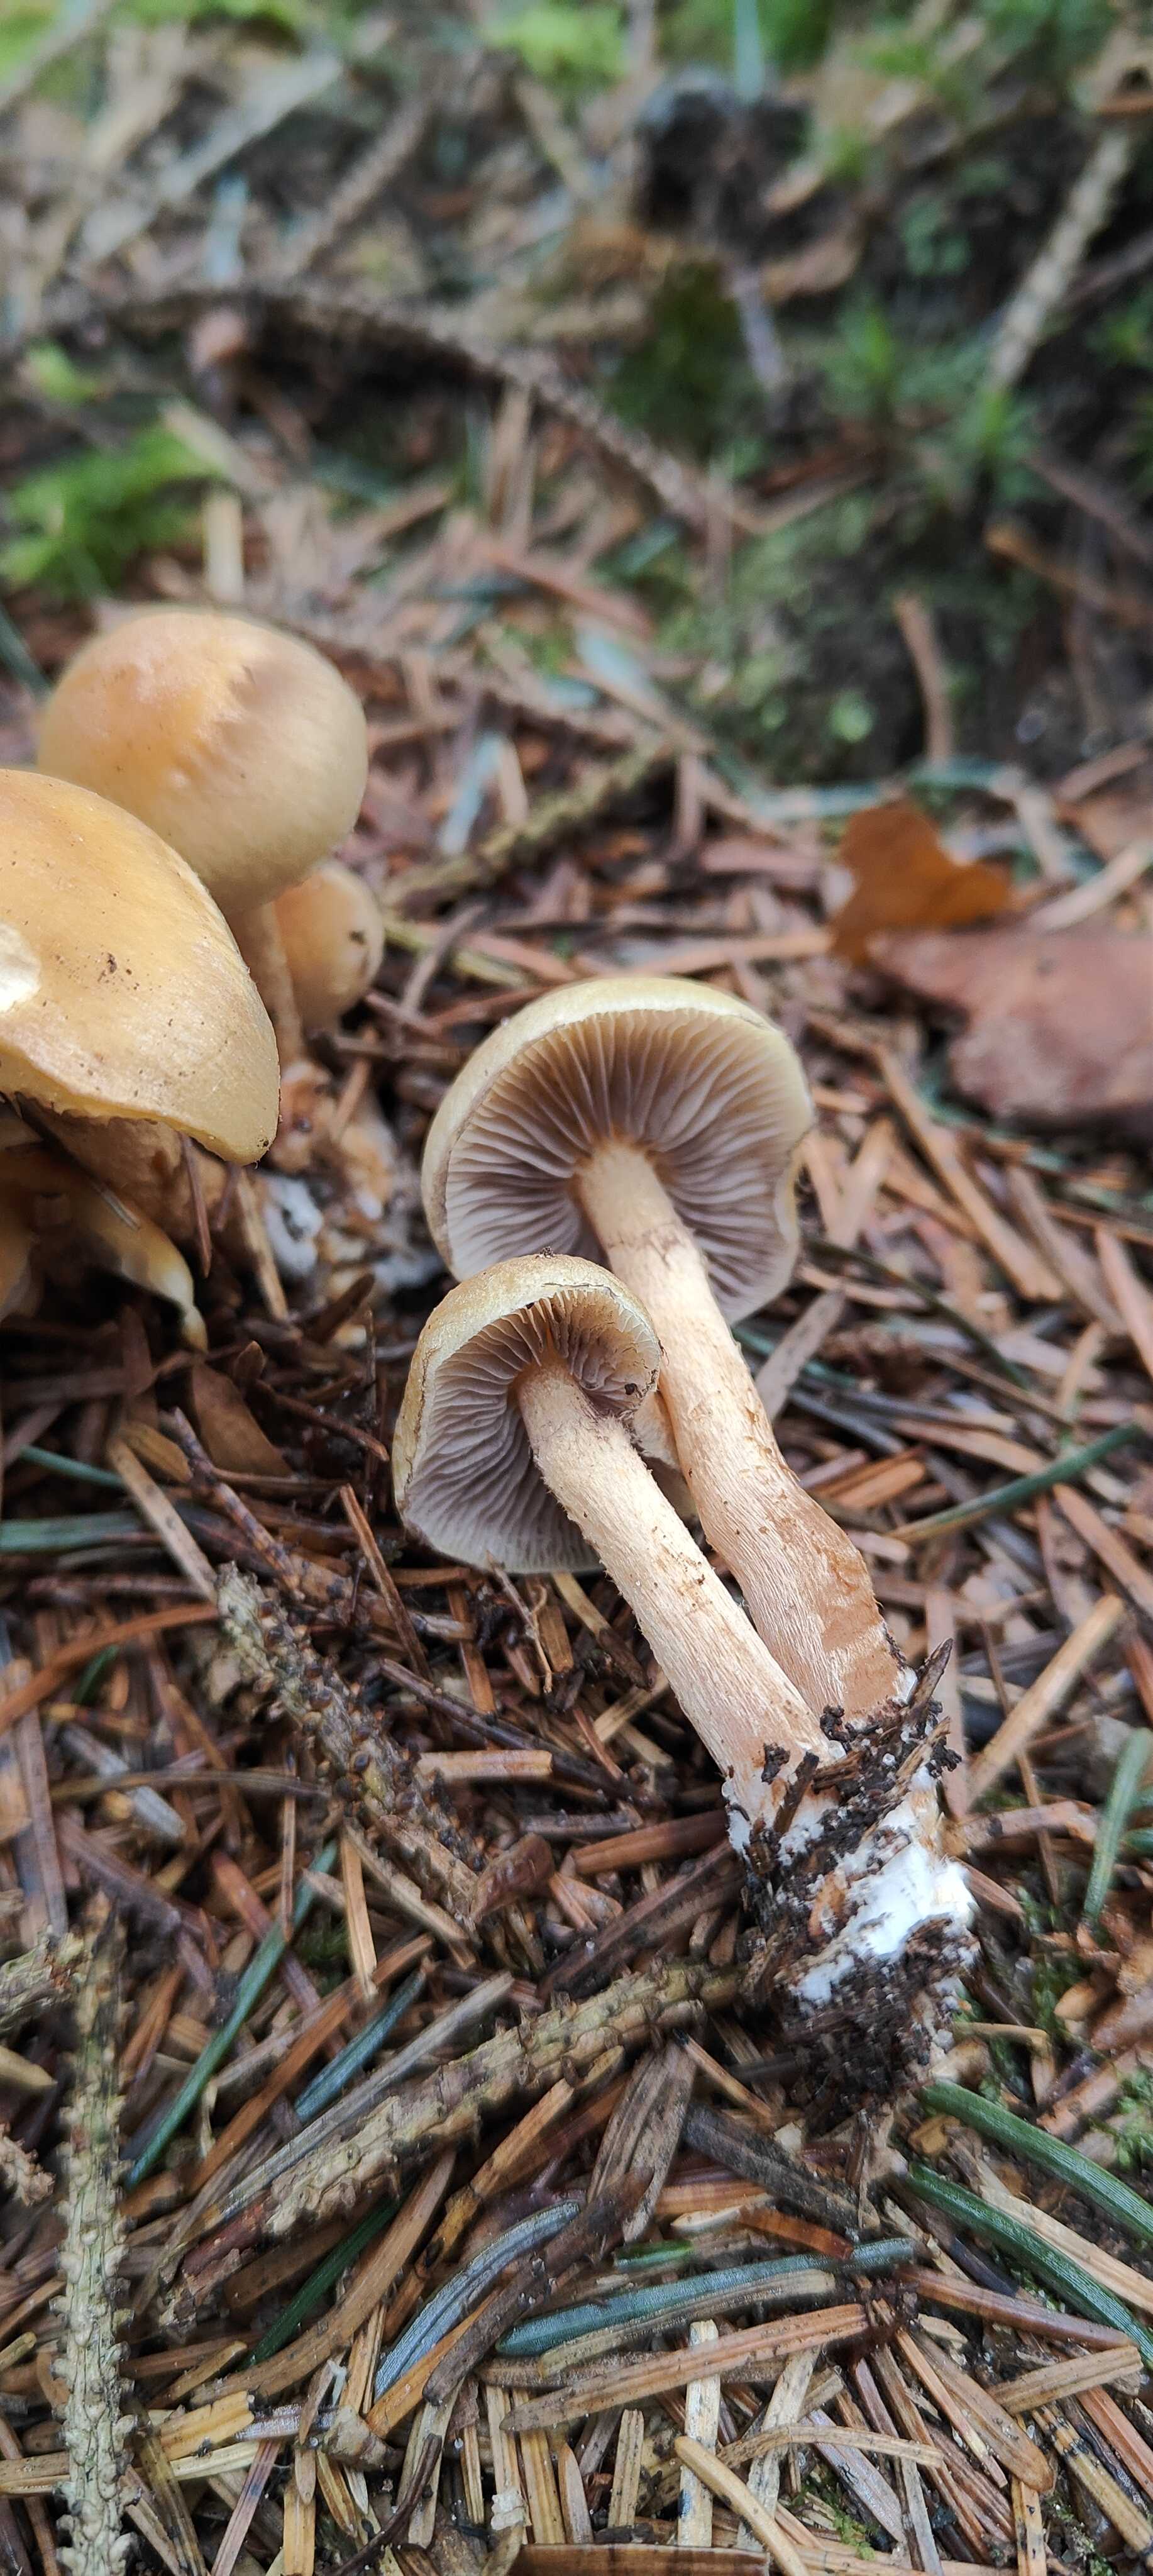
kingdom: Fungi
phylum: Basidiomycota
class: Agaricomycetes
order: Agaricales
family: Strophariaceae
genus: Hypholoma
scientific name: Hypholoma capnoides
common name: gran-svovlhat
